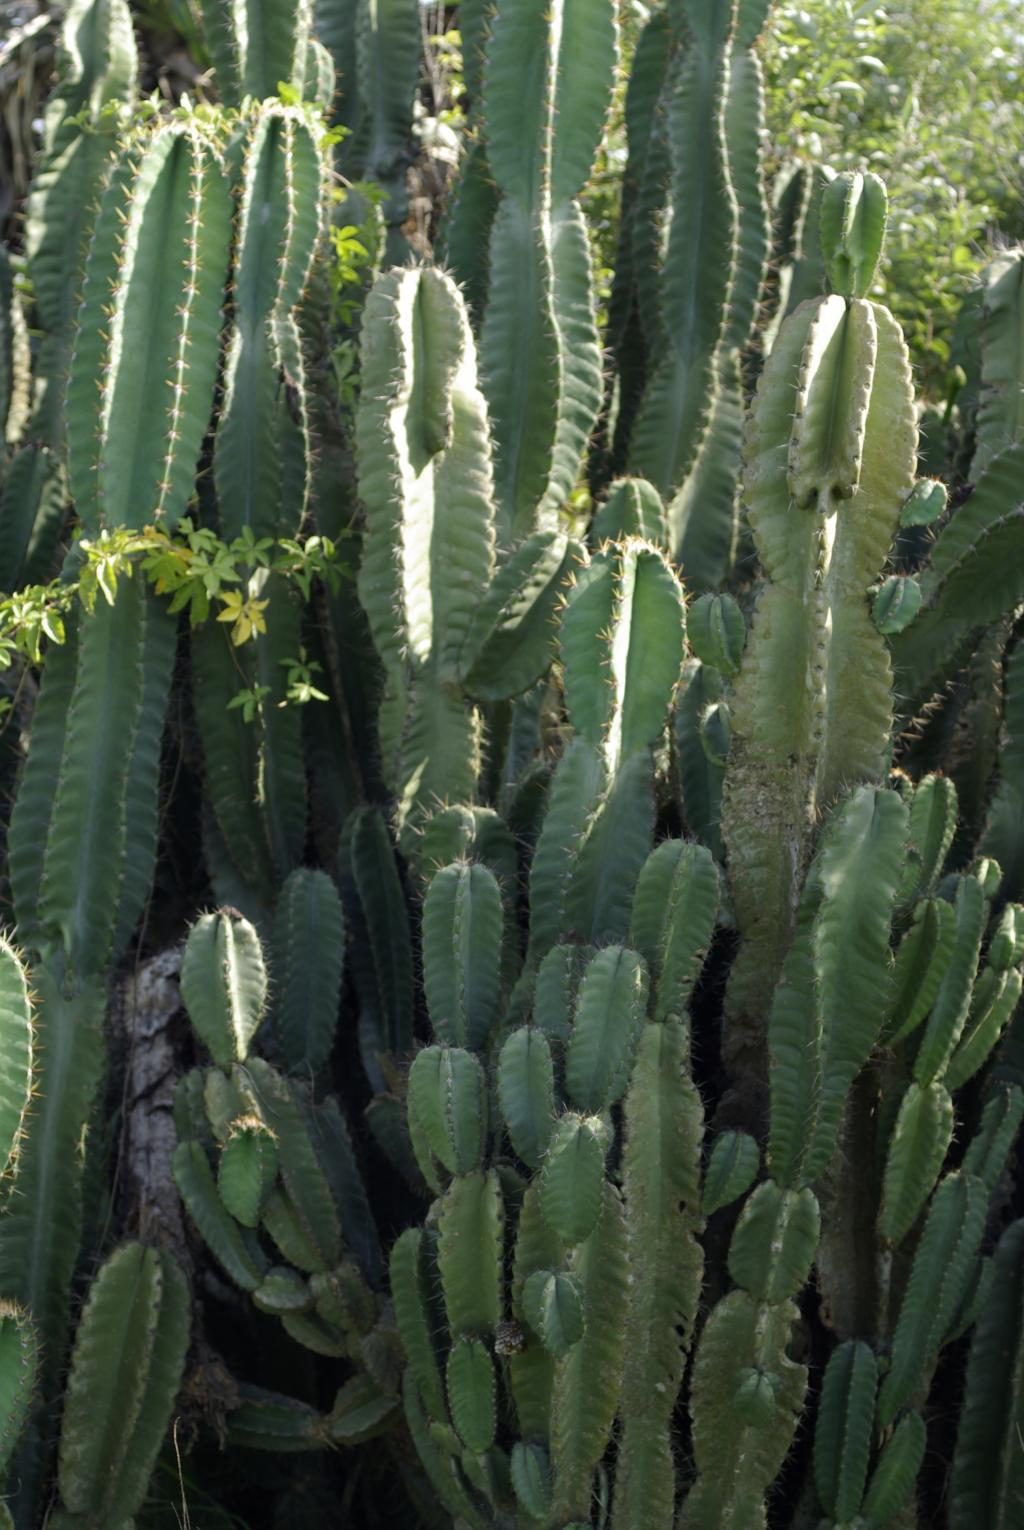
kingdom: Plantae
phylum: Tracheophyta
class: Magnoliopsida
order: Caryophyllales
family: Cactaceae
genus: Cereus
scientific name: Cereus repandus
